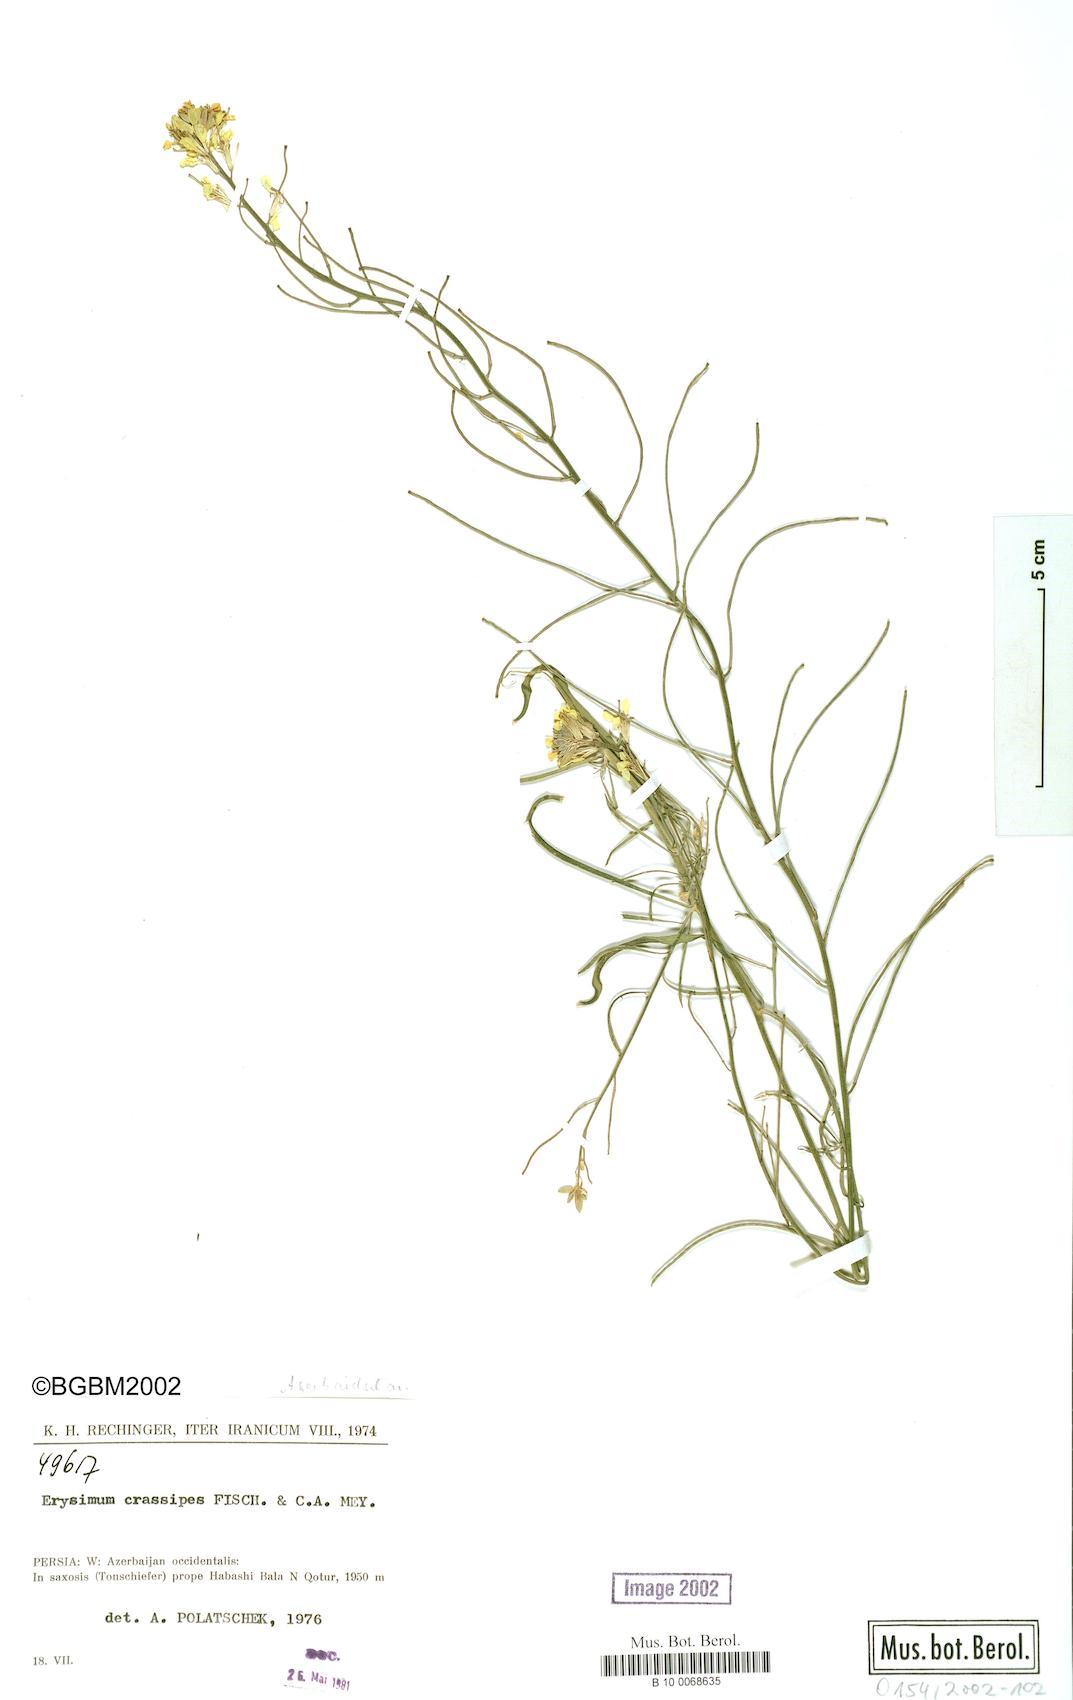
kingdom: Plantae
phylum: Tracheophyta
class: Magnoliopsida
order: Brassicales
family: Brassicaceae
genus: Erysimum
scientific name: Erysimum crassipes
